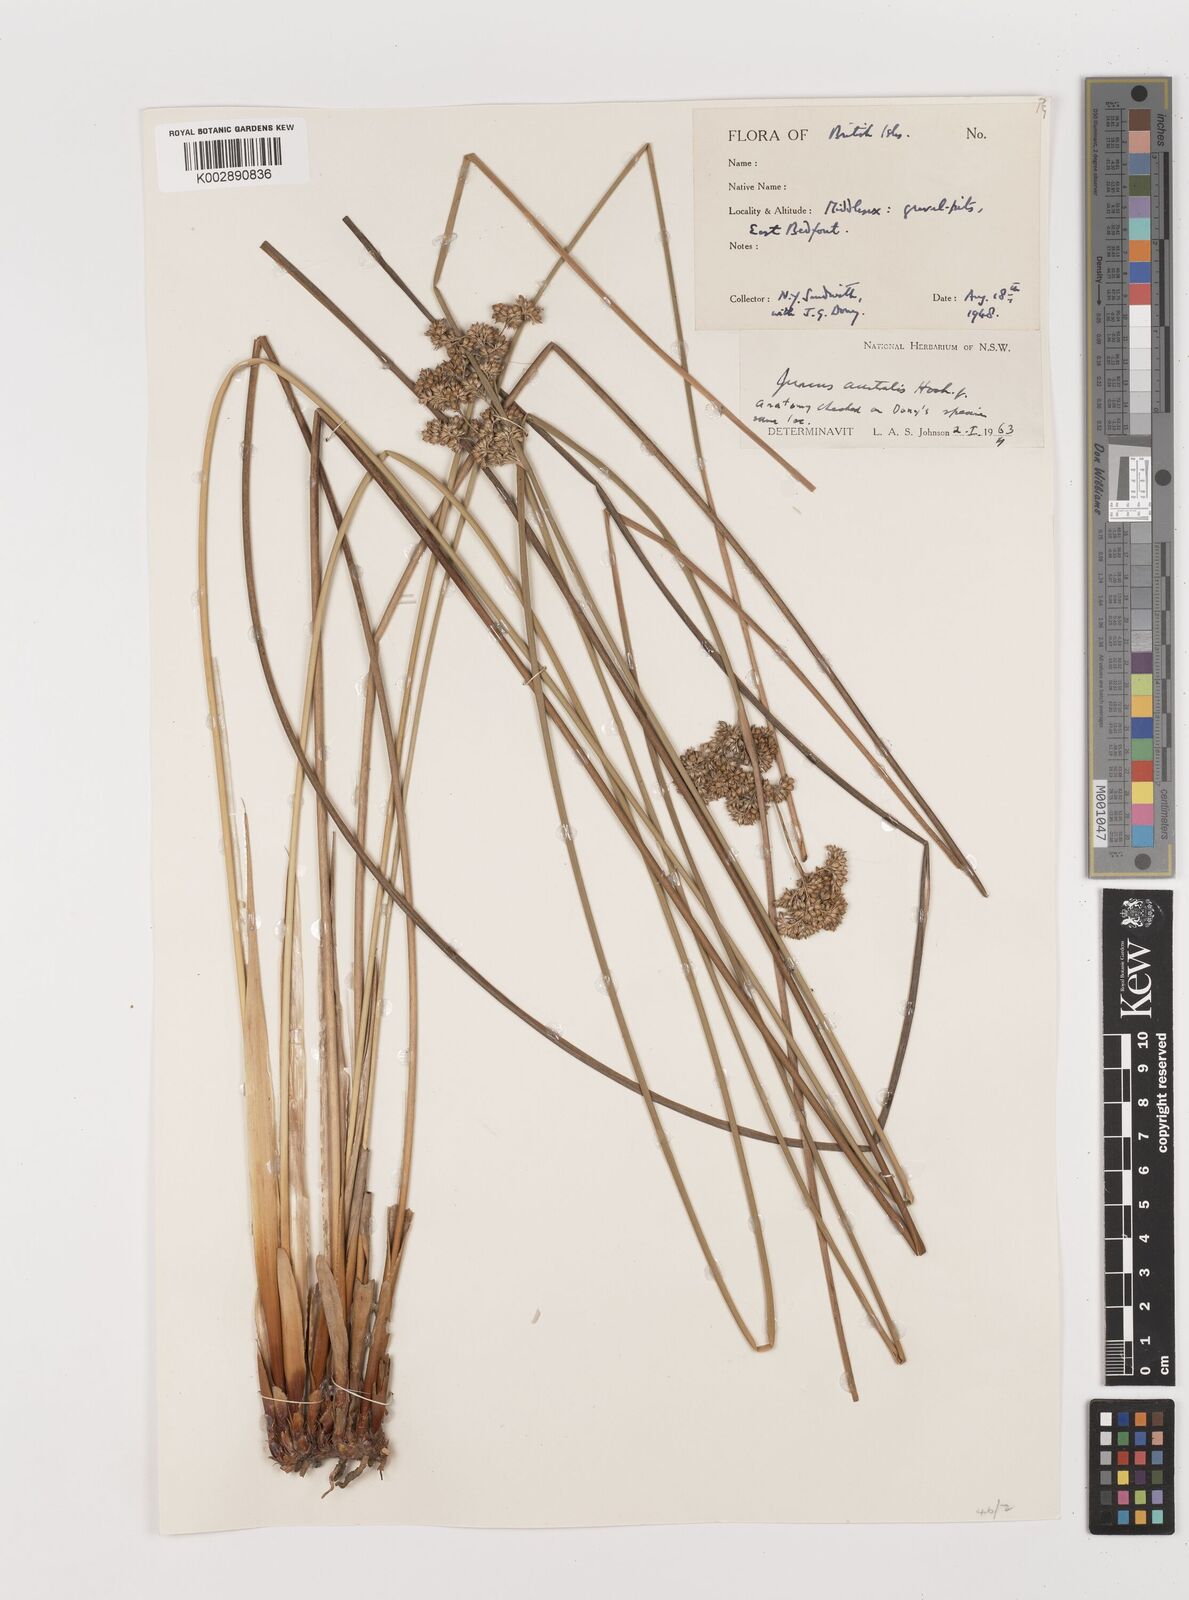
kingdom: Plantae
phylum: Tracheophyta
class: Liliopsida
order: Poales
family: Juncaceae
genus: Juncus
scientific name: Juncus australis
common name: Austral rush
